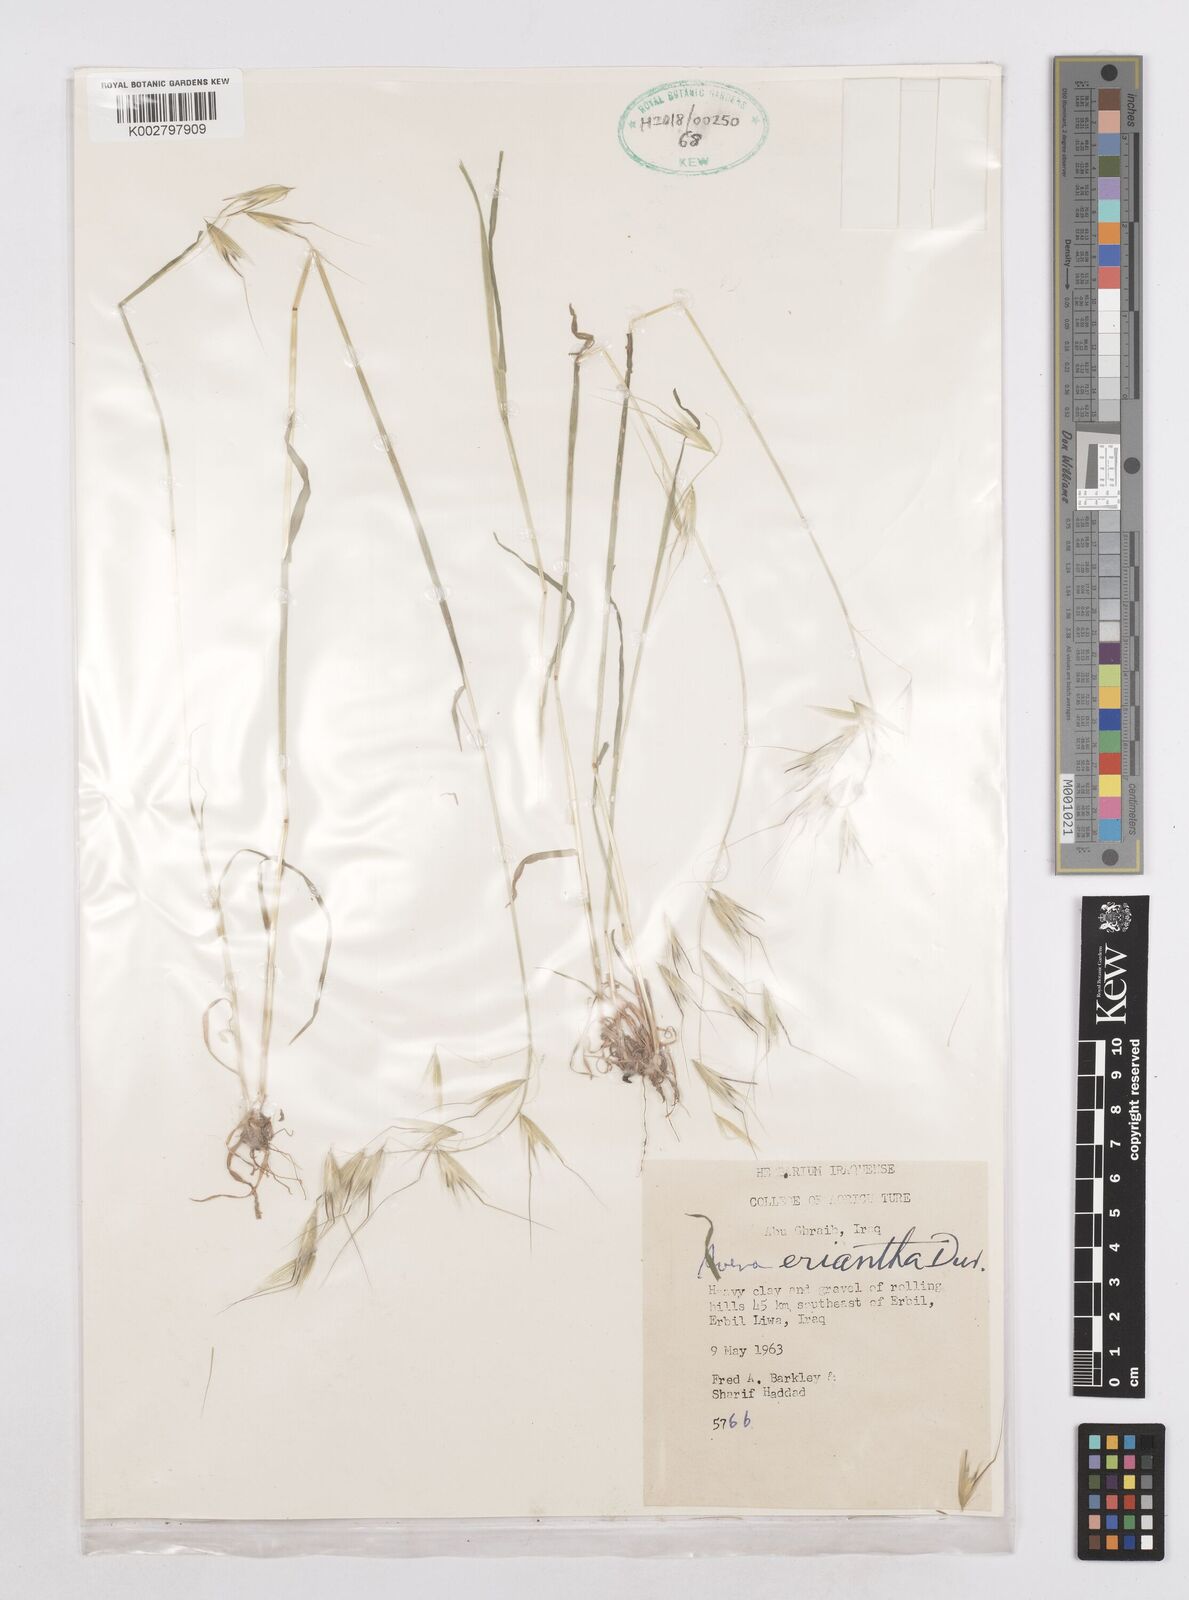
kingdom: Plantae
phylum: Tracheophyta
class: Liliopsida
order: Poales
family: Poaceae
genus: Avena
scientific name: Avena eriantha
